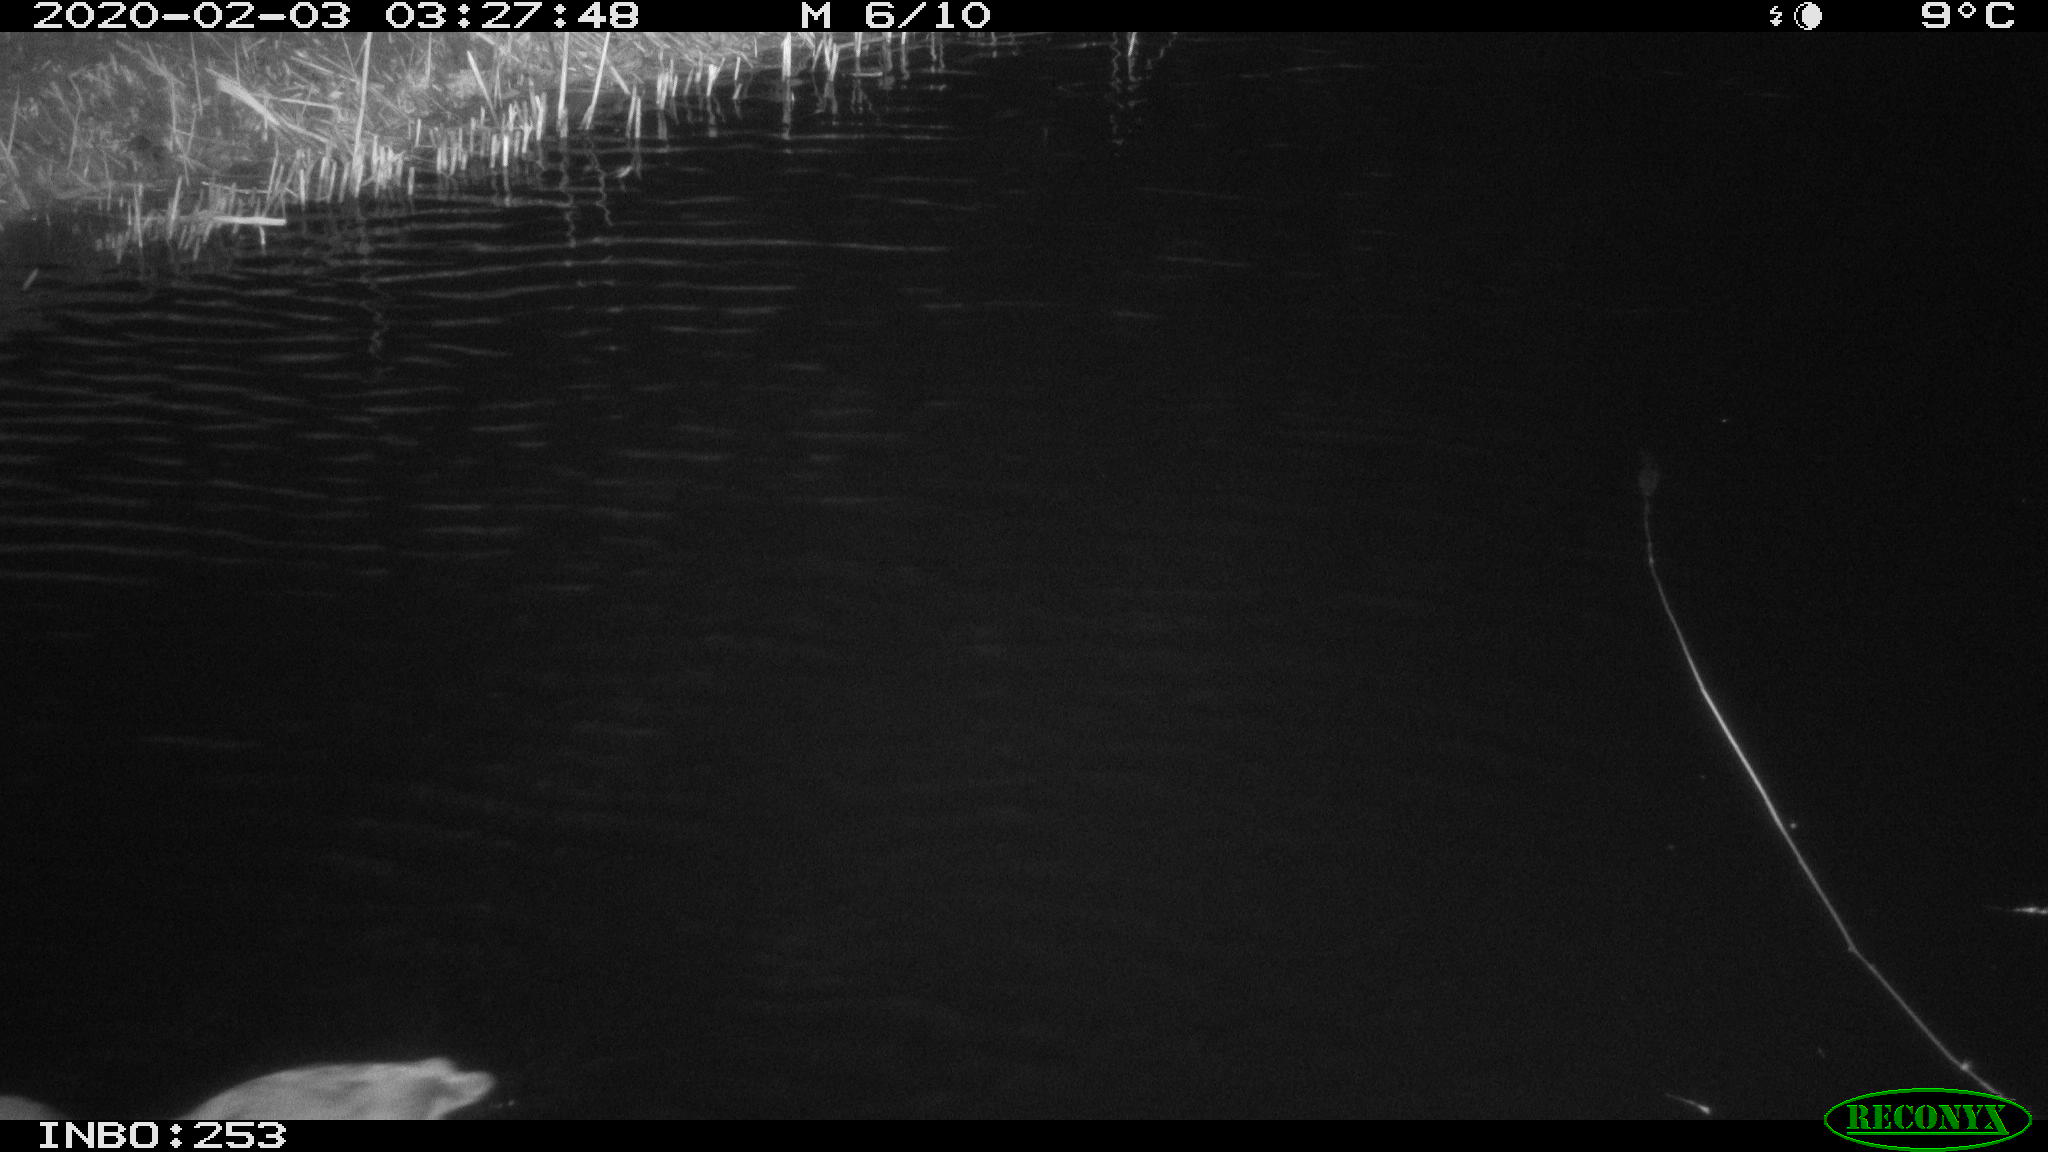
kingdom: Animalia
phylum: Chordata
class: Aves
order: Gruiformes
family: Rallidae
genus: Fulica
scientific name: Fulica atra
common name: Eurasian coot
